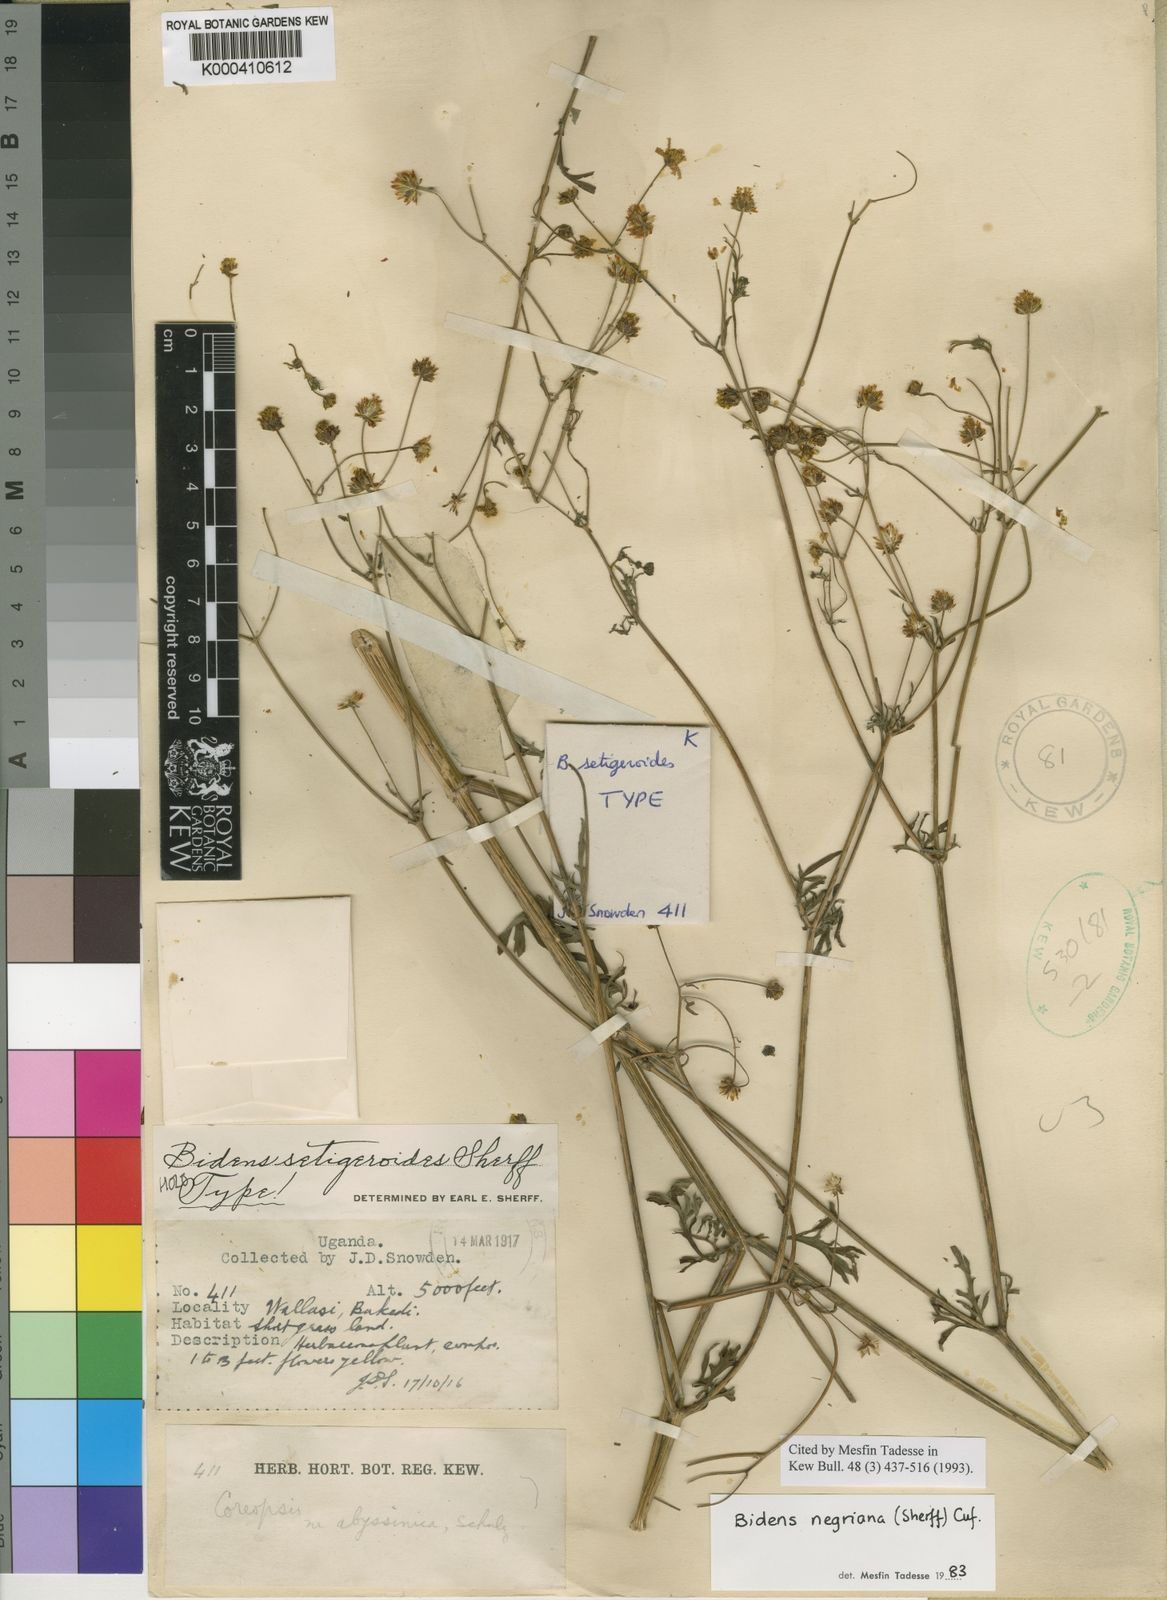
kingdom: Plantae
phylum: Tracheophyta
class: Magnoliopsida
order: Asterales
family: Asteraceae
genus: Bidens
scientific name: Bidens negriana
